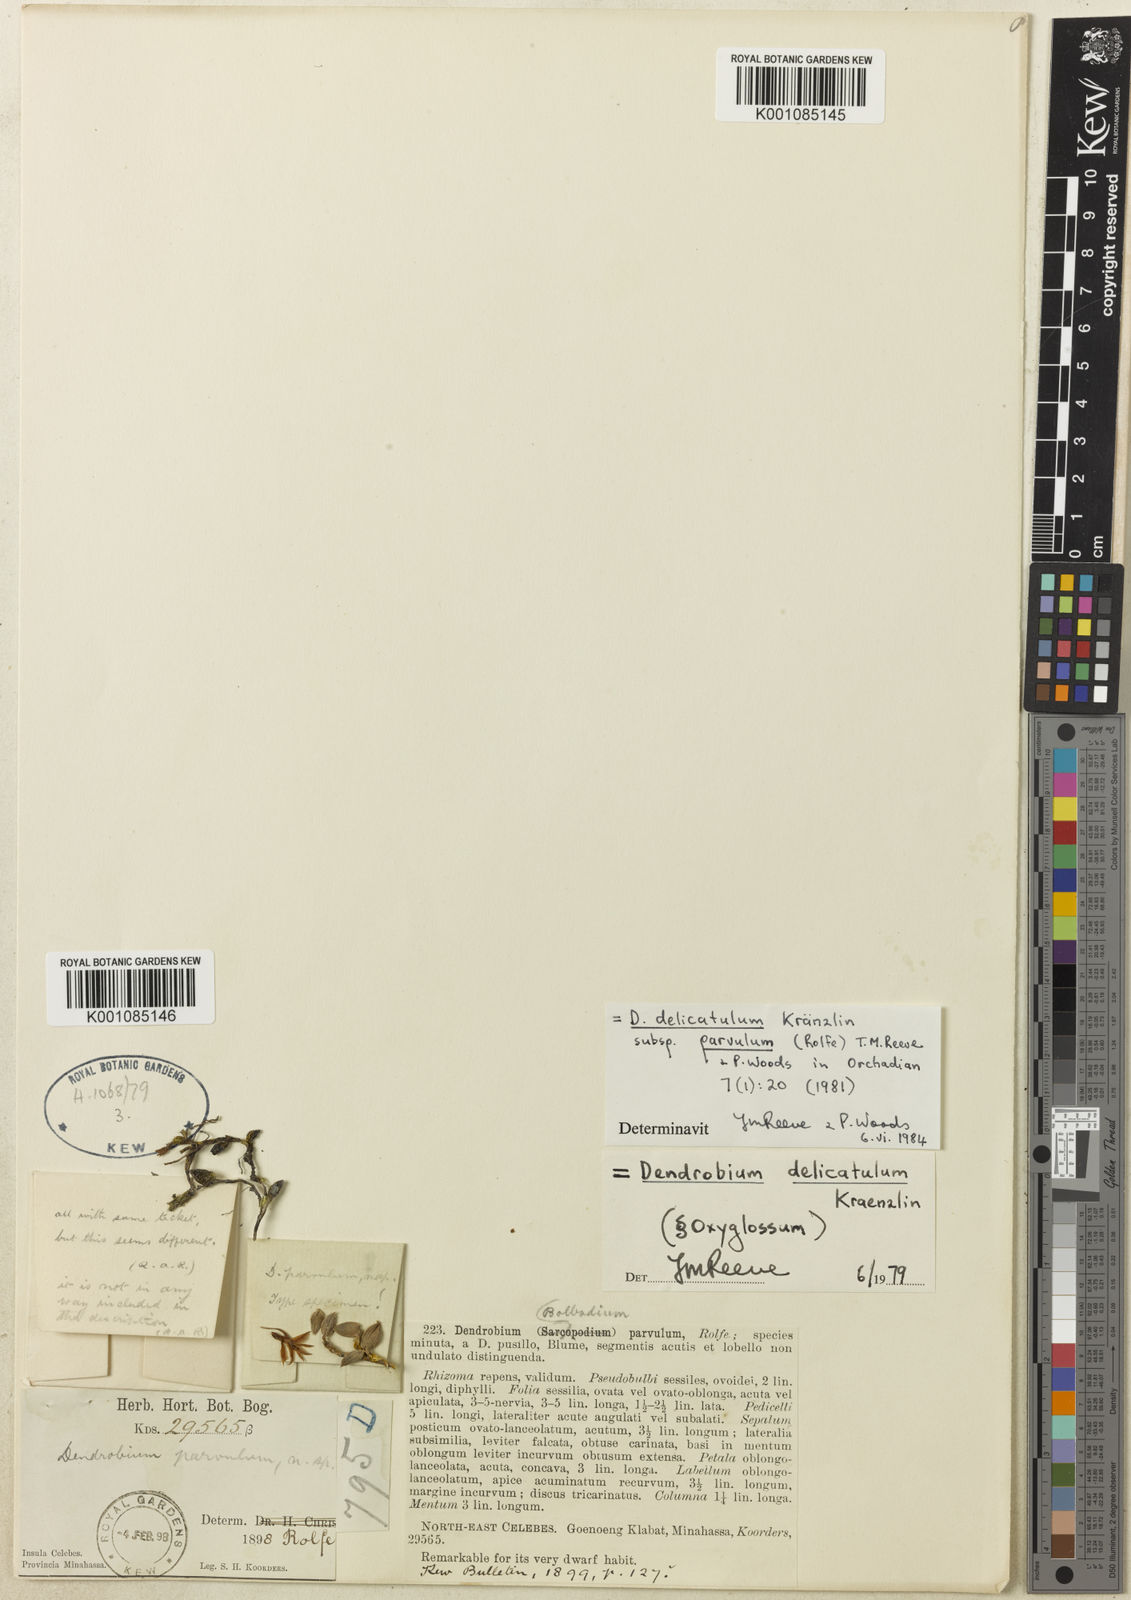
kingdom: Plantae
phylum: Tracheophyta
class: Liliopsida
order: Asparagales
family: Orchidaceae
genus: Dendrobium
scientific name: Dendrobium
